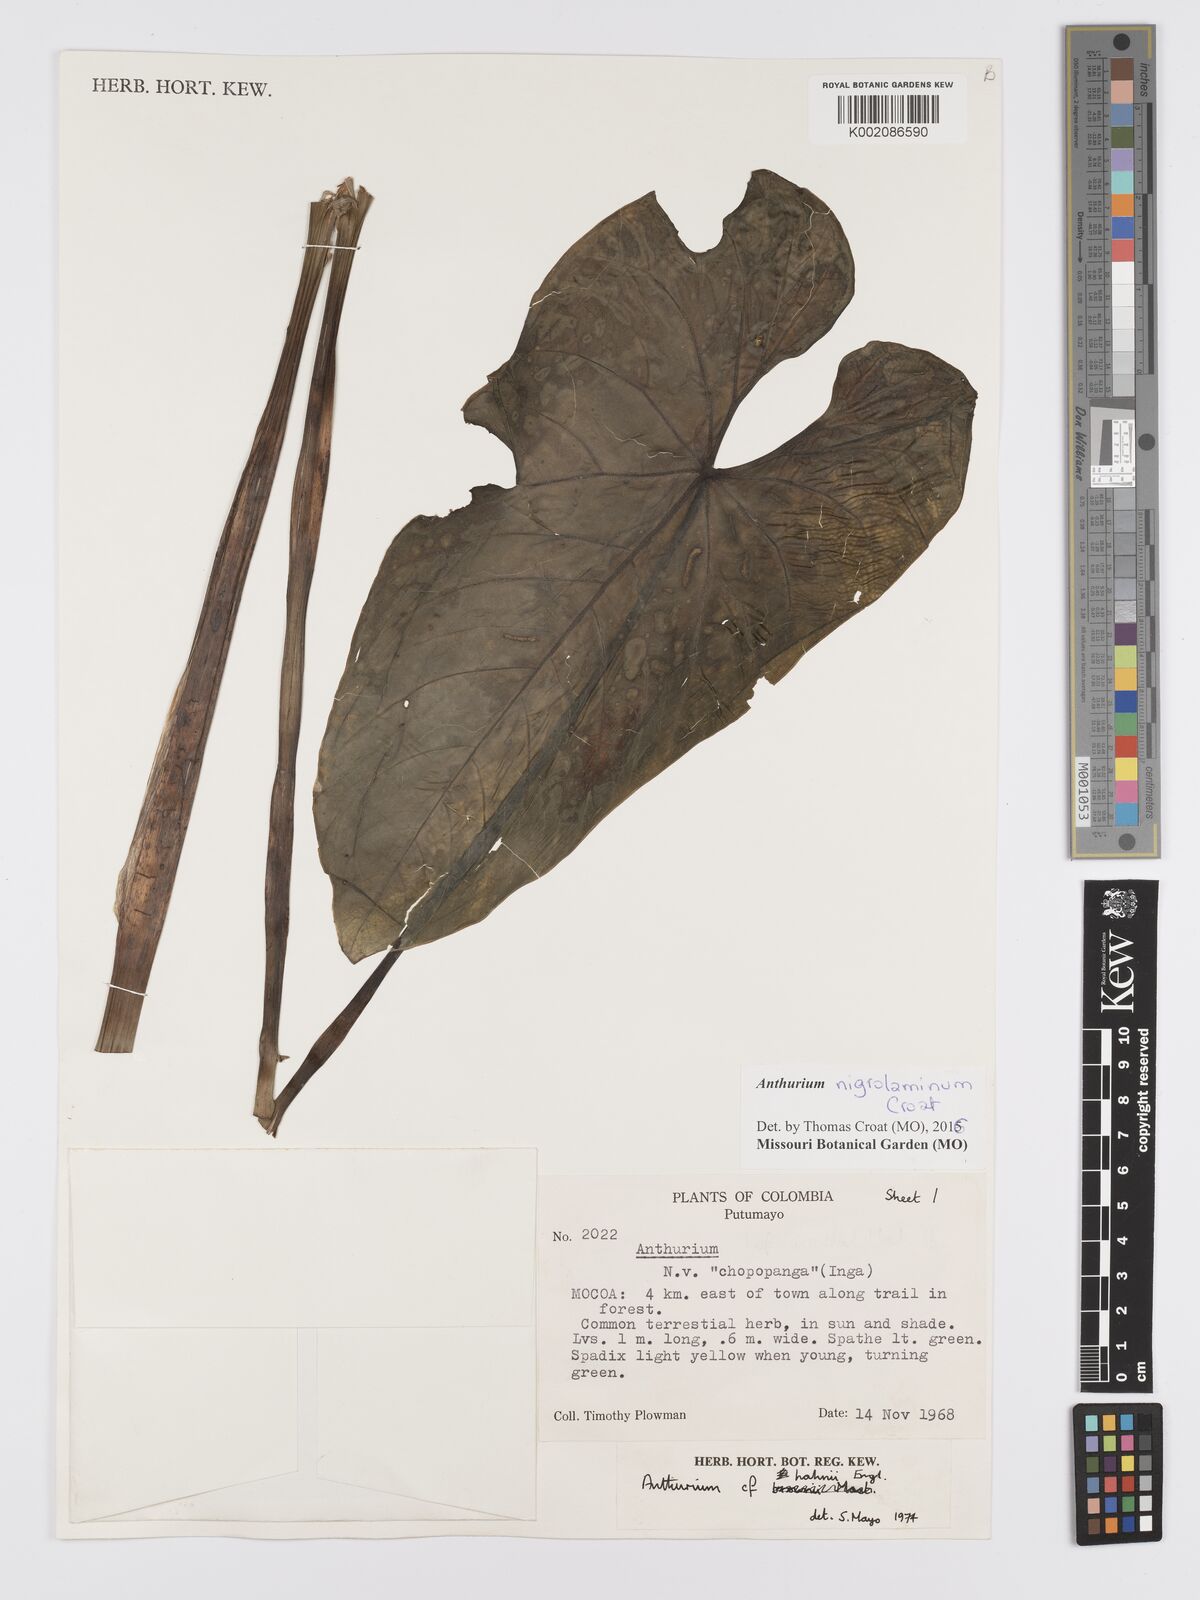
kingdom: Plantae
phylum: Tracheophyta
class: Liliopsida
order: Alismatales
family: Araceae
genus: Anthurium
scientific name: Anthurium nigropunctatum
